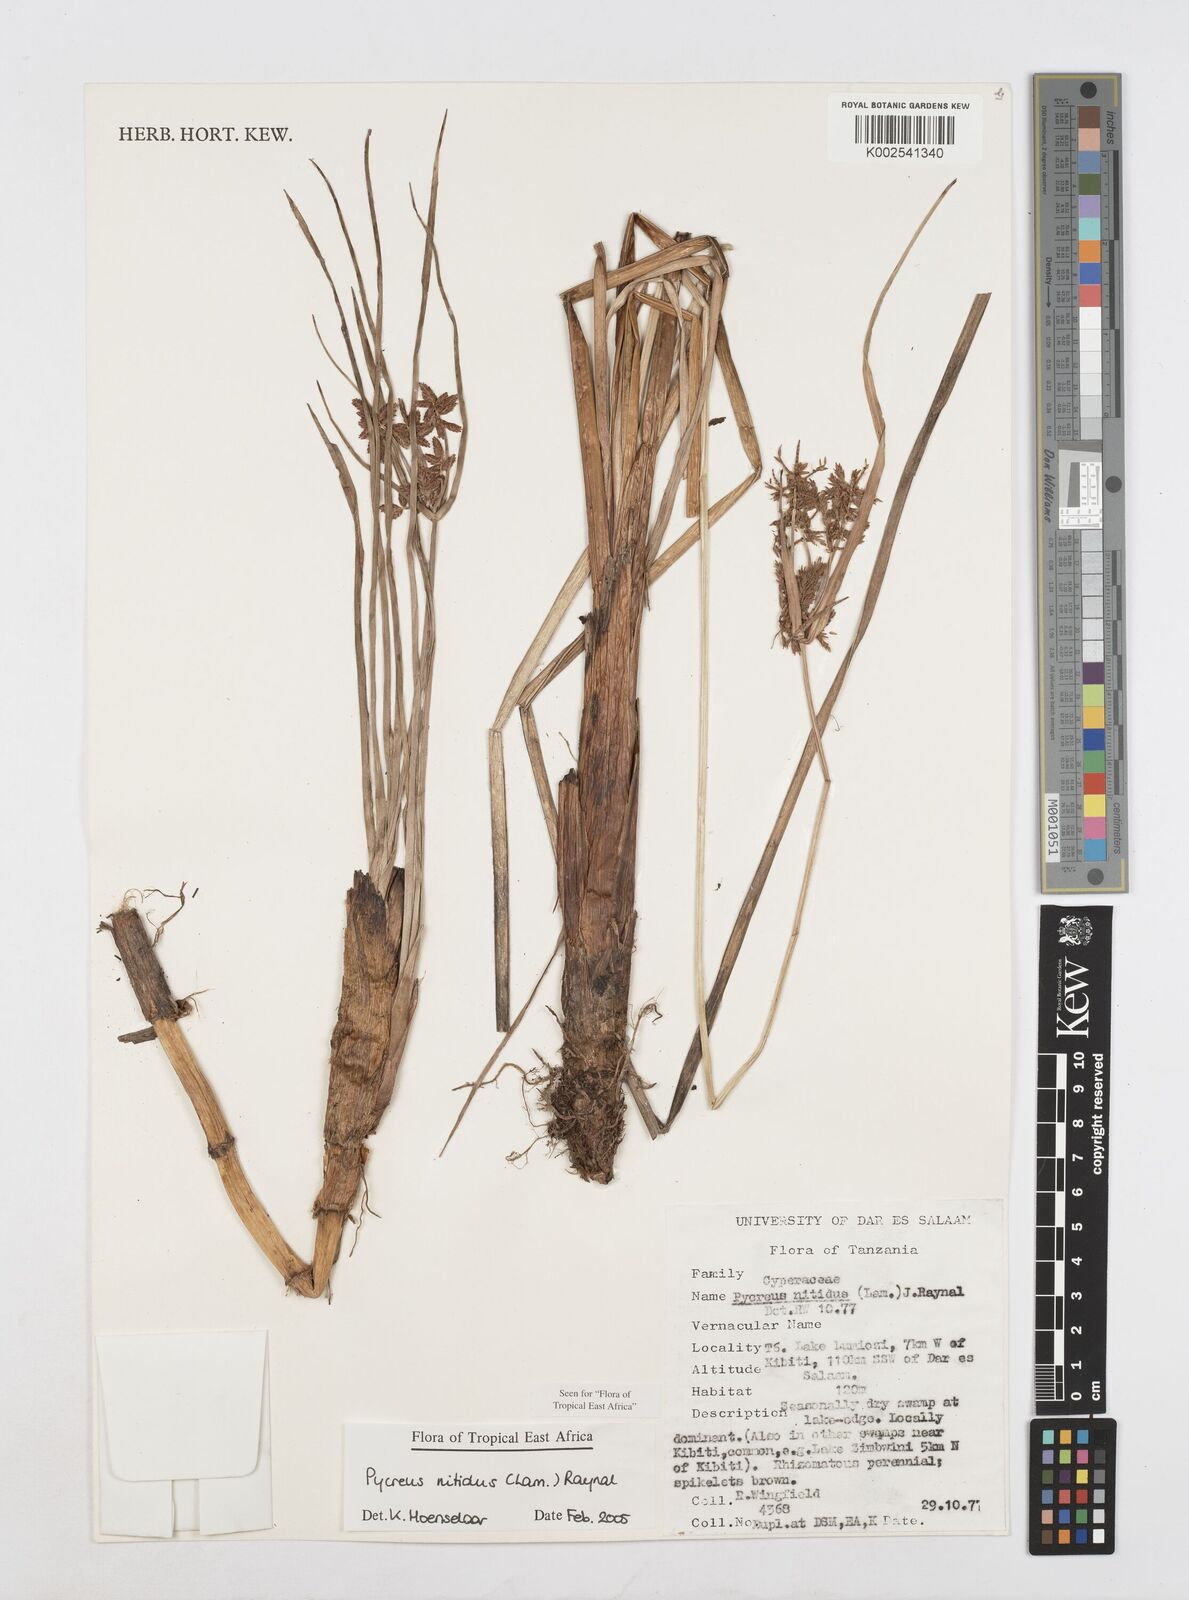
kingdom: Plantae
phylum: Tracheophyta
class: Liliopsida
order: Poales
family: Cyperaceae
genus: Cyperus
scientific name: Cyperus nitidus
